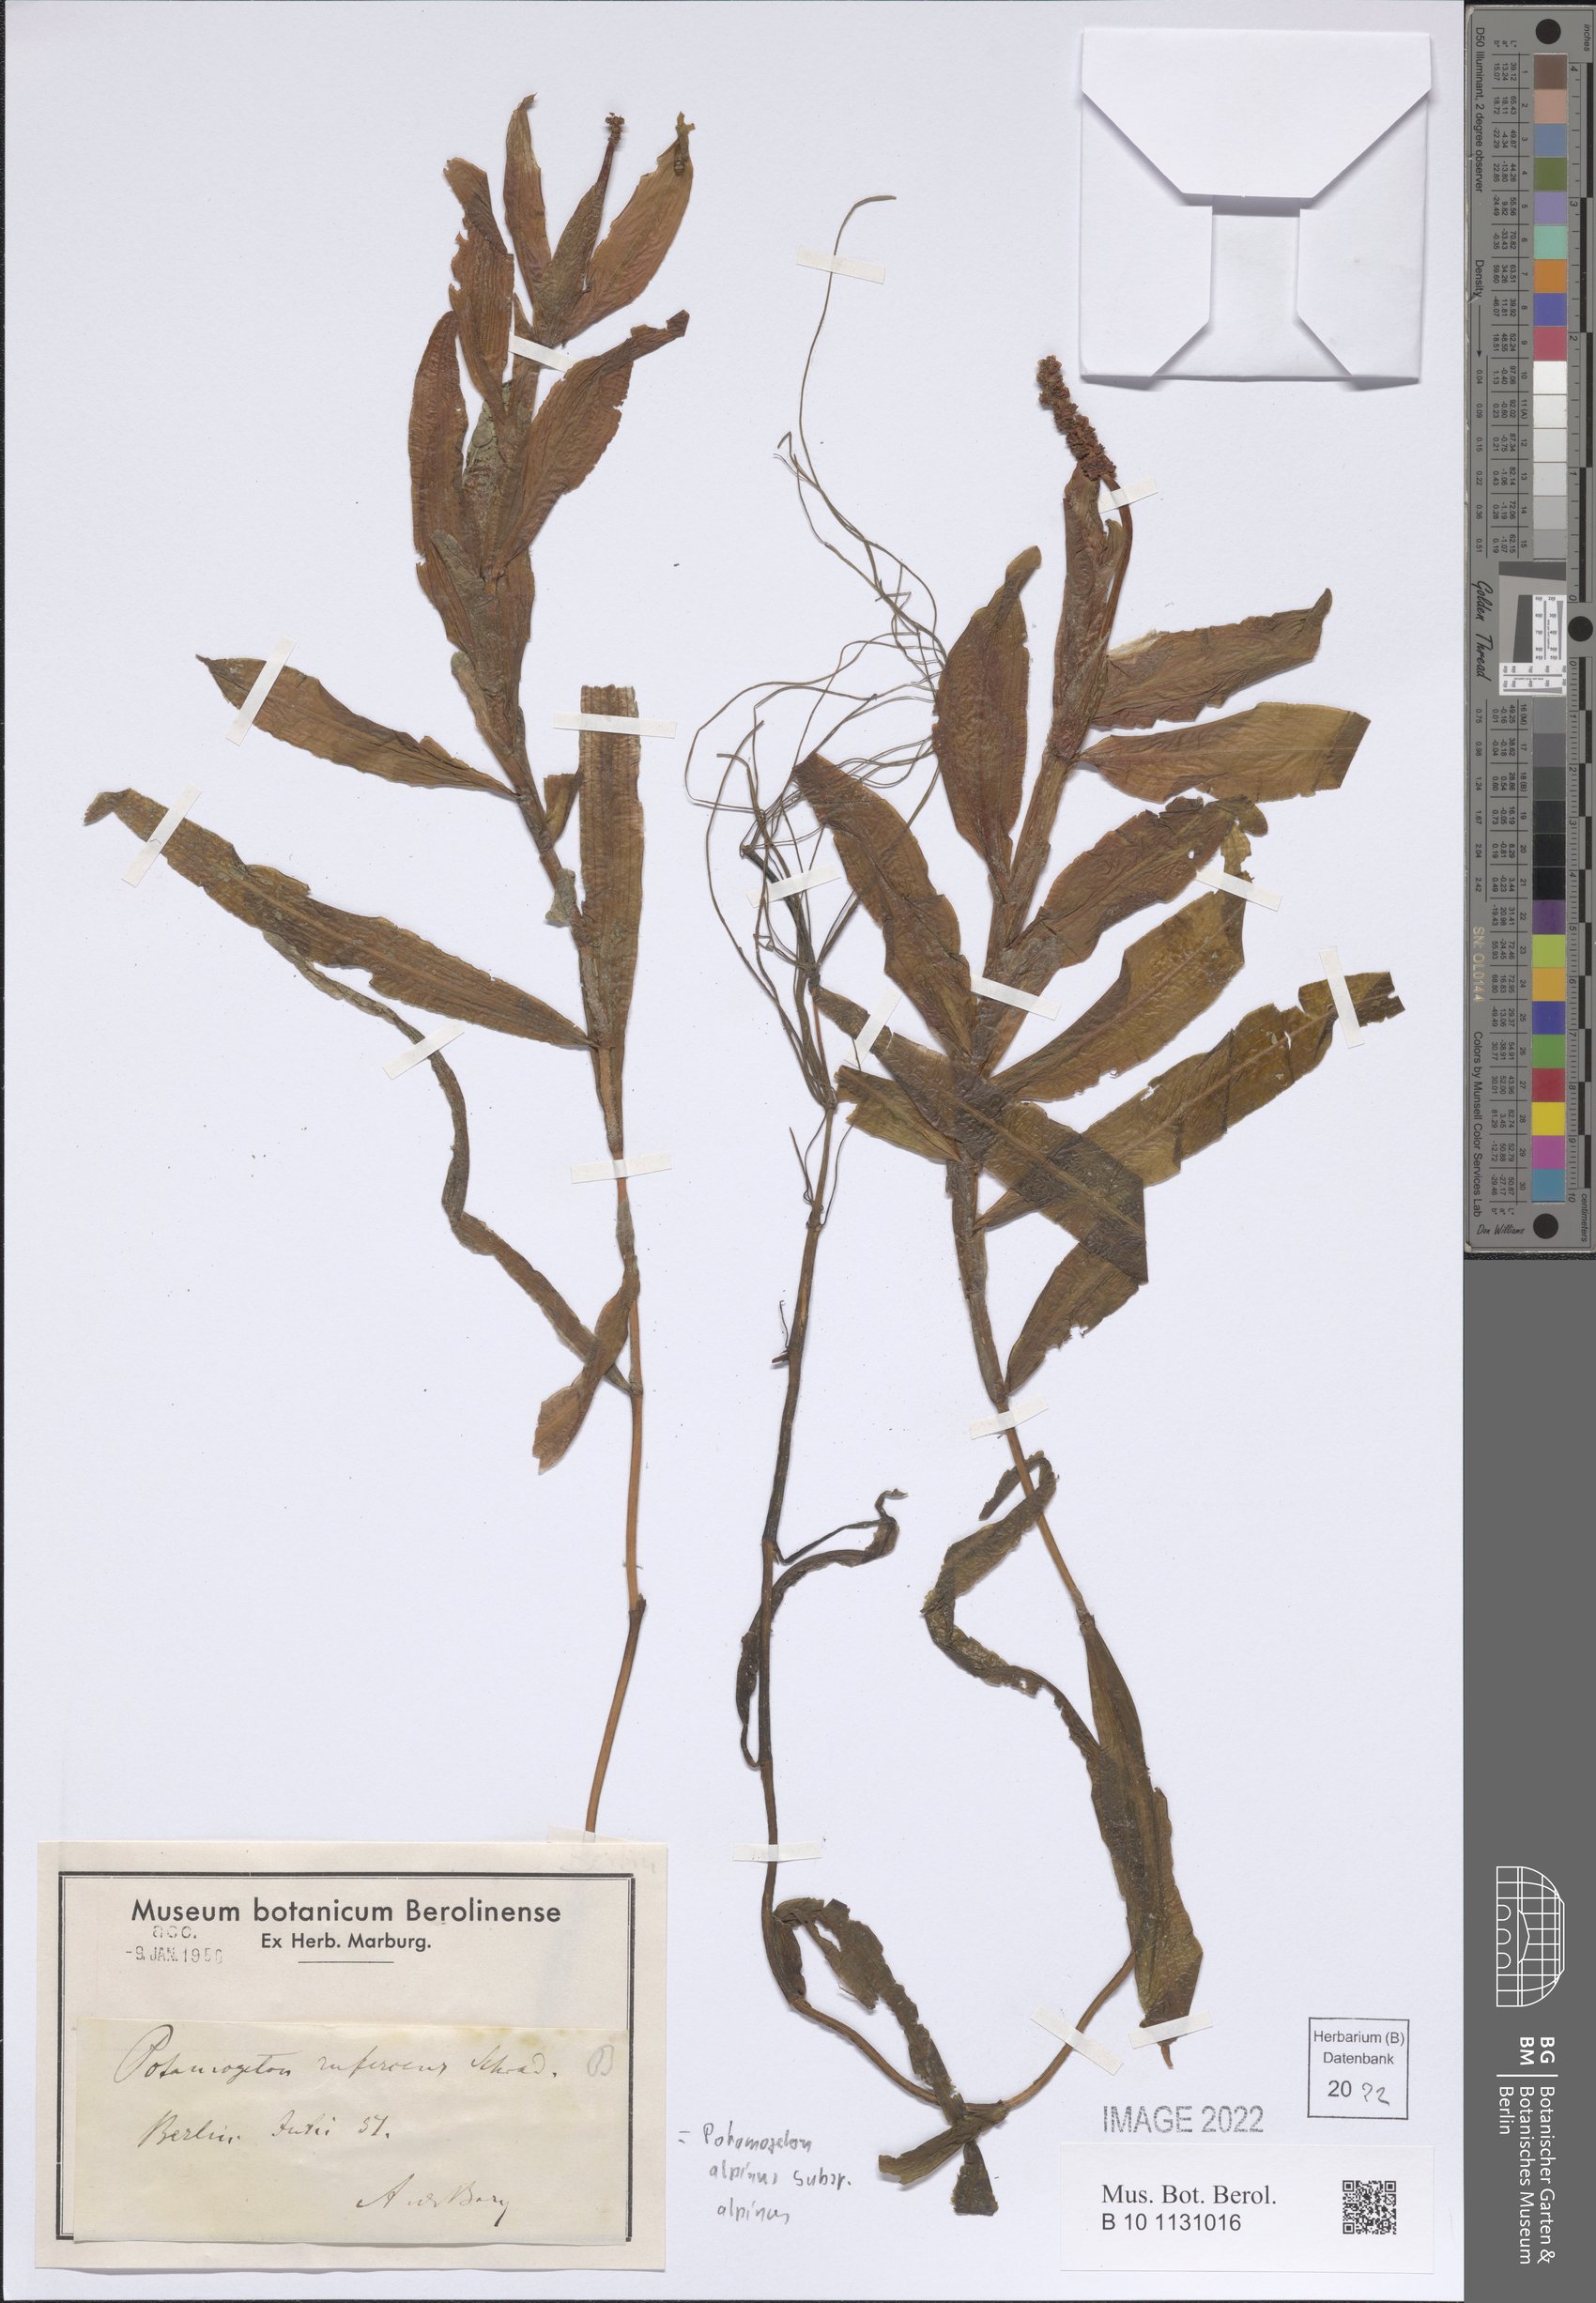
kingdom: Plantae
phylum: Tracheophyta
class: Liliopsida
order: Alismatales
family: Potamogetonaceae
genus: Potamogeton
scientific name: Potamogeton alpinus
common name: Red pondweed
